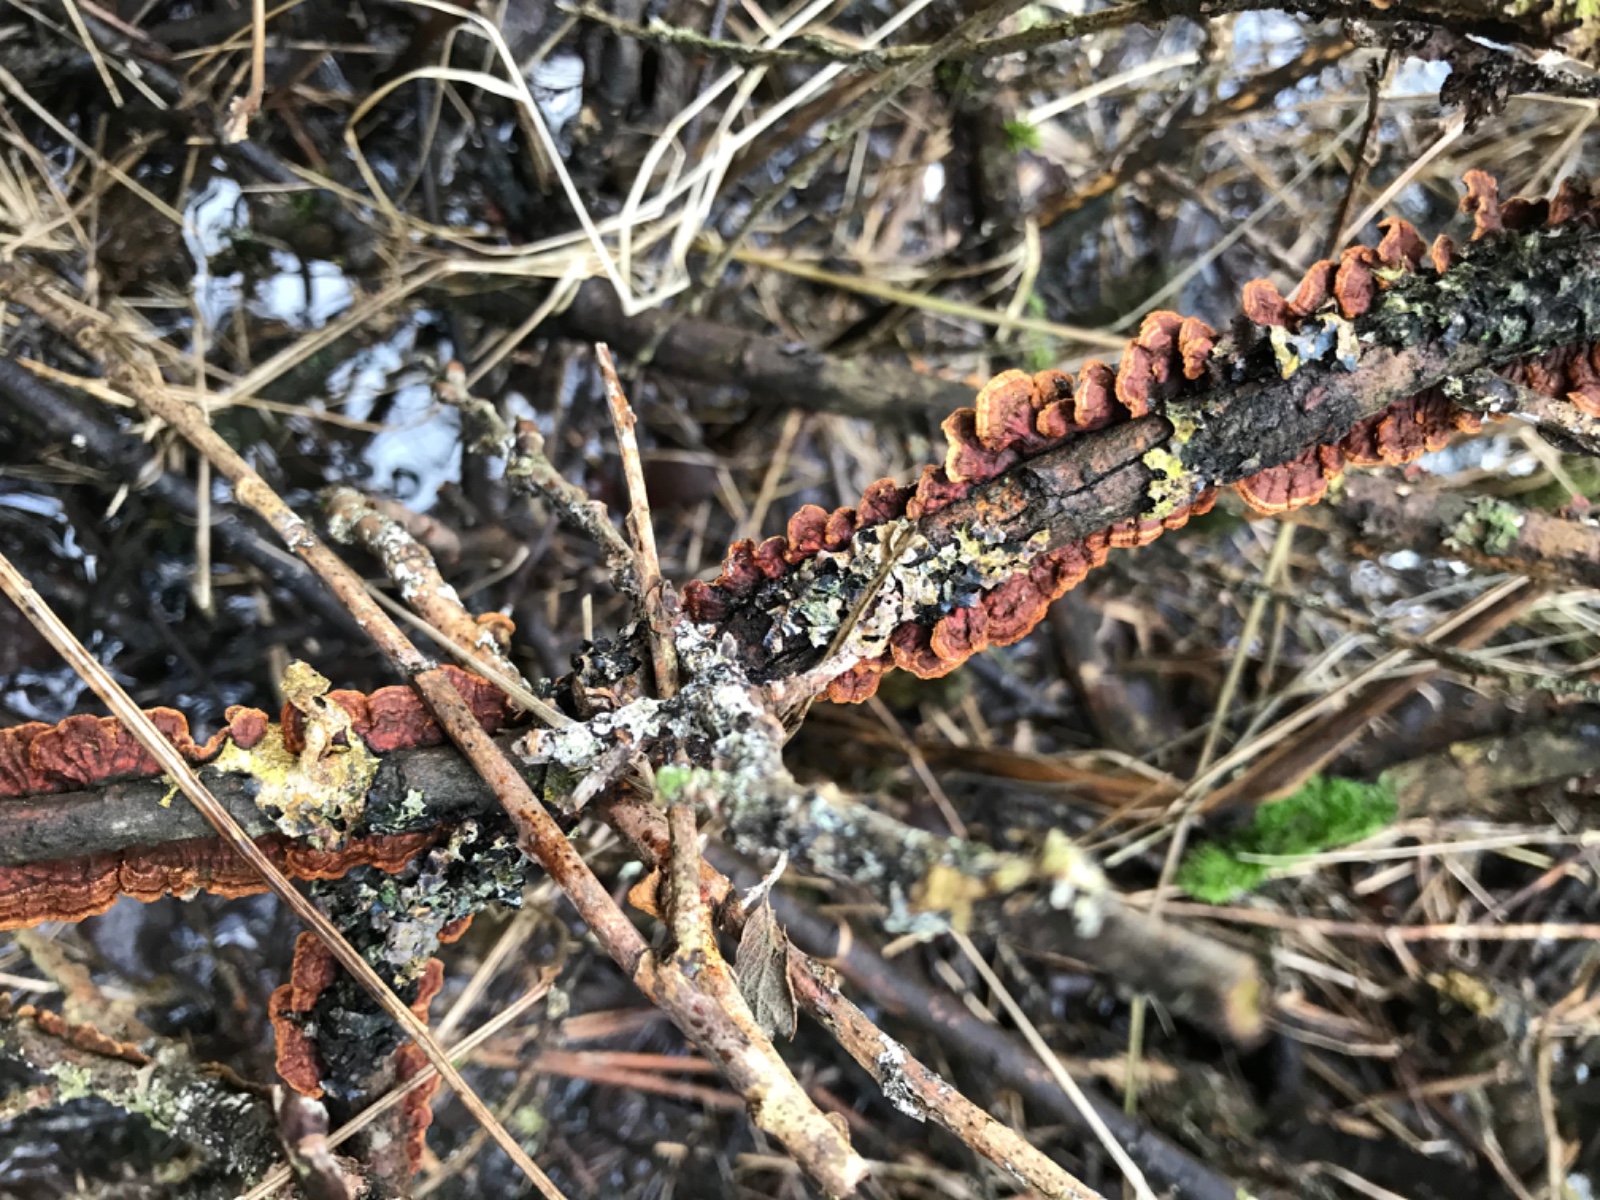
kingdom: Fungi
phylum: Basidiomycota
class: Agaricomycetes
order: Hymenochaetales
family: Hymenochaetaceae
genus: Hydnoporia
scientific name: Hydnoporia tabacina
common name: tobaksbrun ruslædersvamp
